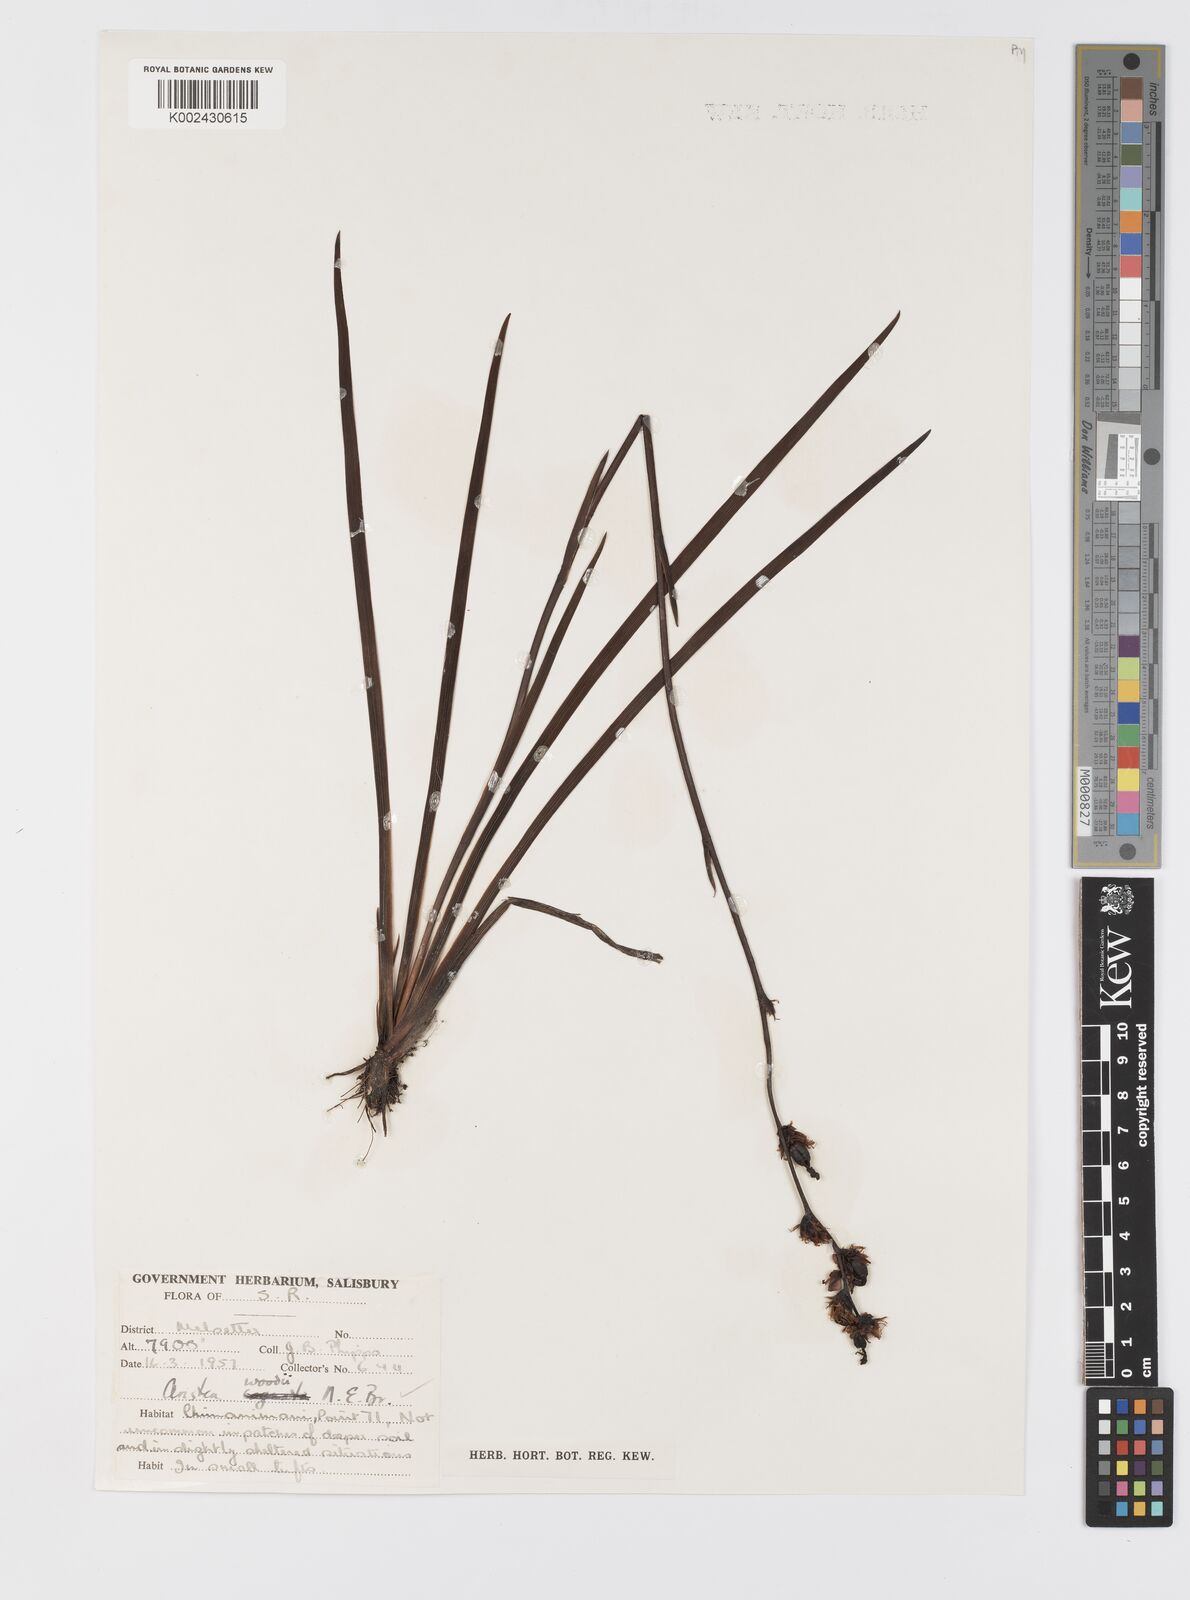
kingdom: Plantae
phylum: Tracheophyta
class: Liliopsida
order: Asparagales
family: Iridaceae
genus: Aristea
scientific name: Aristea torulosa
